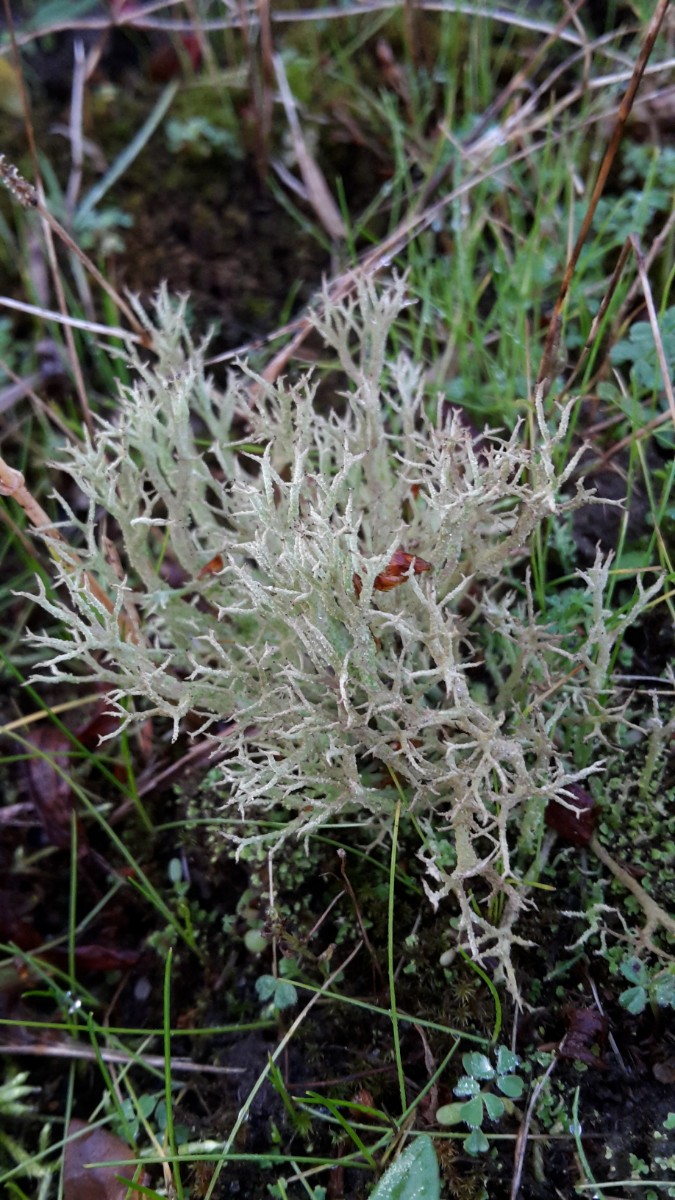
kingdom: Fungi
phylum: Ascomycota
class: Lecanoromycetes
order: Lecanorales
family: Cladoniaceae
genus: Cladonia
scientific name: Cladonia scabriuscula
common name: ru bægerlav
